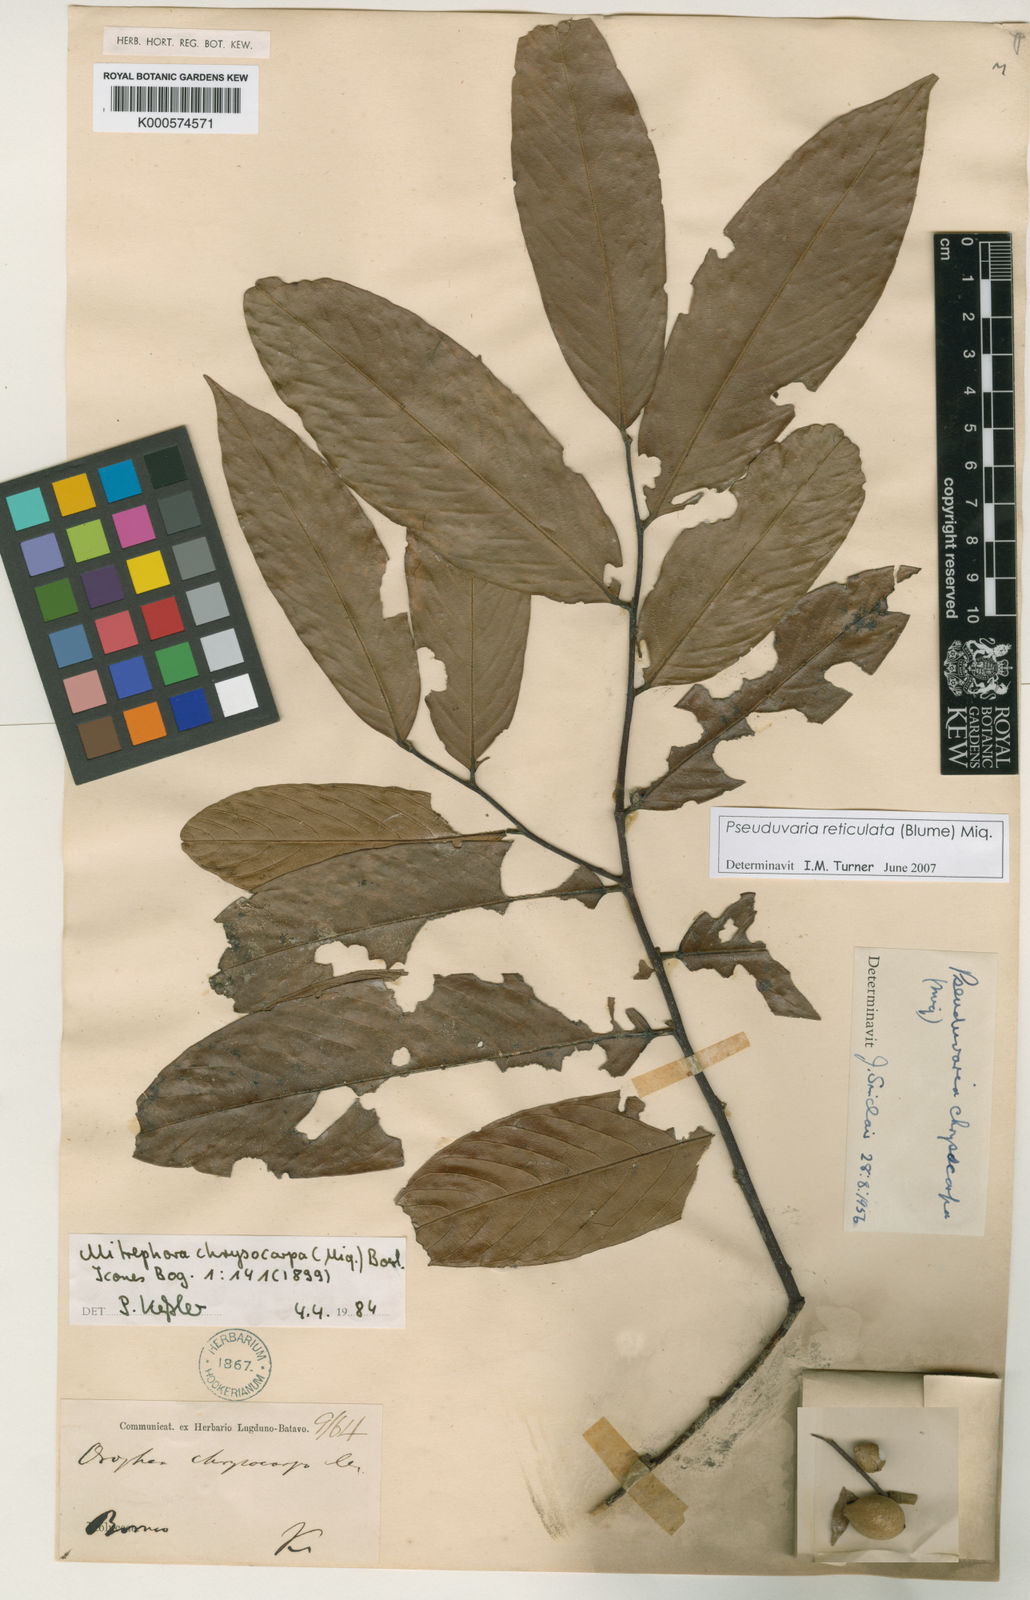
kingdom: Plantae
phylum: Tracheophyta
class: Magnoliopsida
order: Magnoliales
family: Annonaceae
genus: Pseuduvaria
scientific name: Pseuduvaria reticulata
